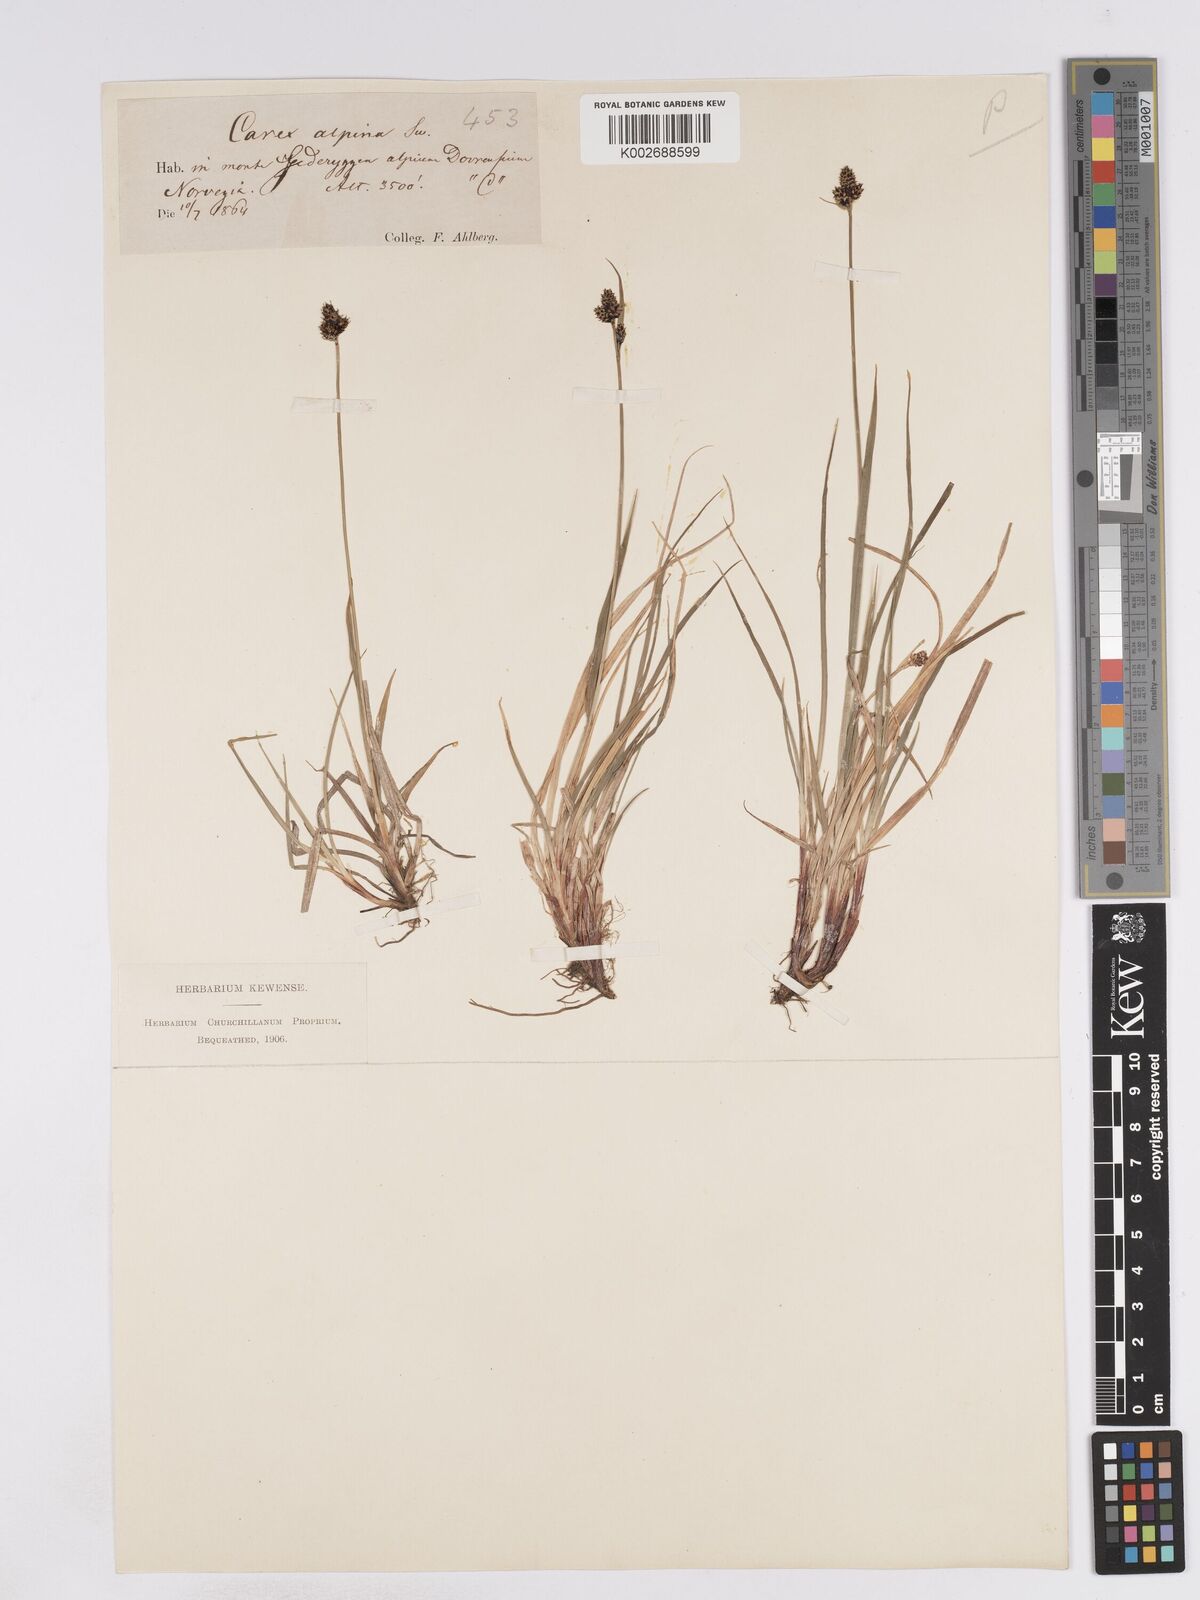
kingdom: Plantae
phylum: Tracheophyta
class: Liliopsida
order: Poales
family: Cyperaceae
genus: Carex
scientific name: Carex norvegica
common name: Close-headed alpine-sedge
